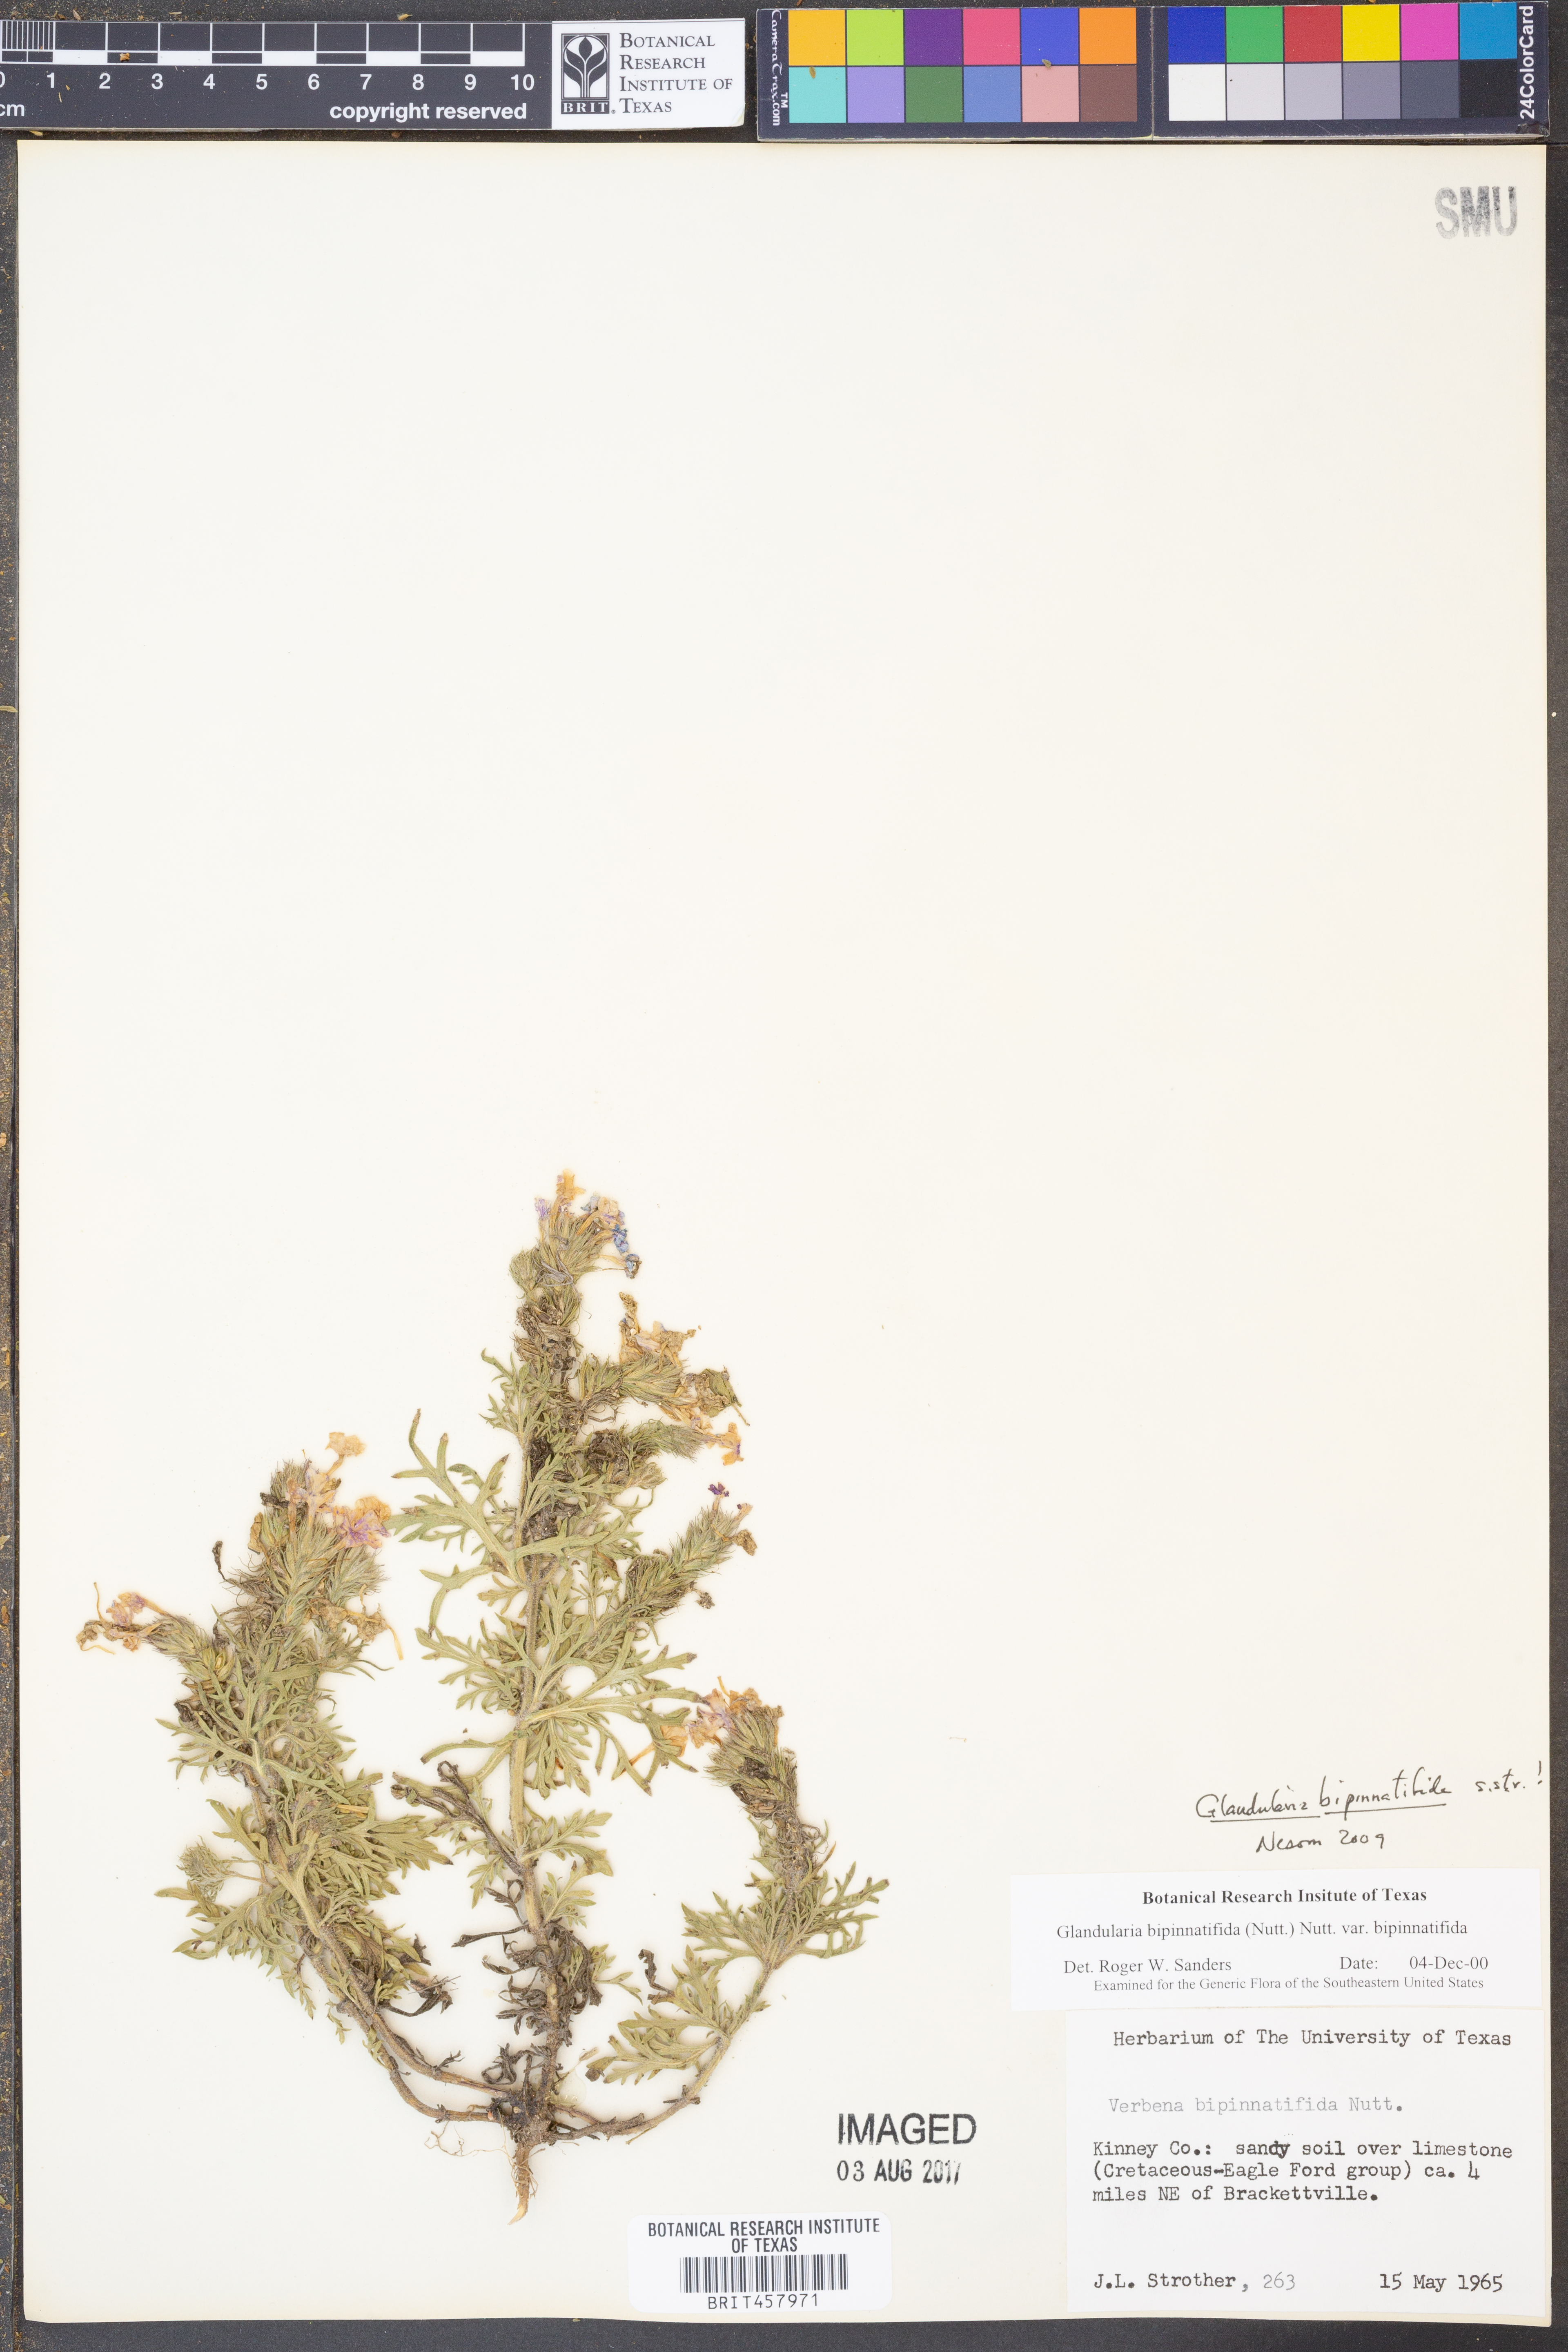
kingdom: Plantae
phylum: Tracheophyta
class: Magnoliopsida
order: Lamiales
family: Verbenaceae
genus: Verbena
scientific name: Verbena bipinnatifida
